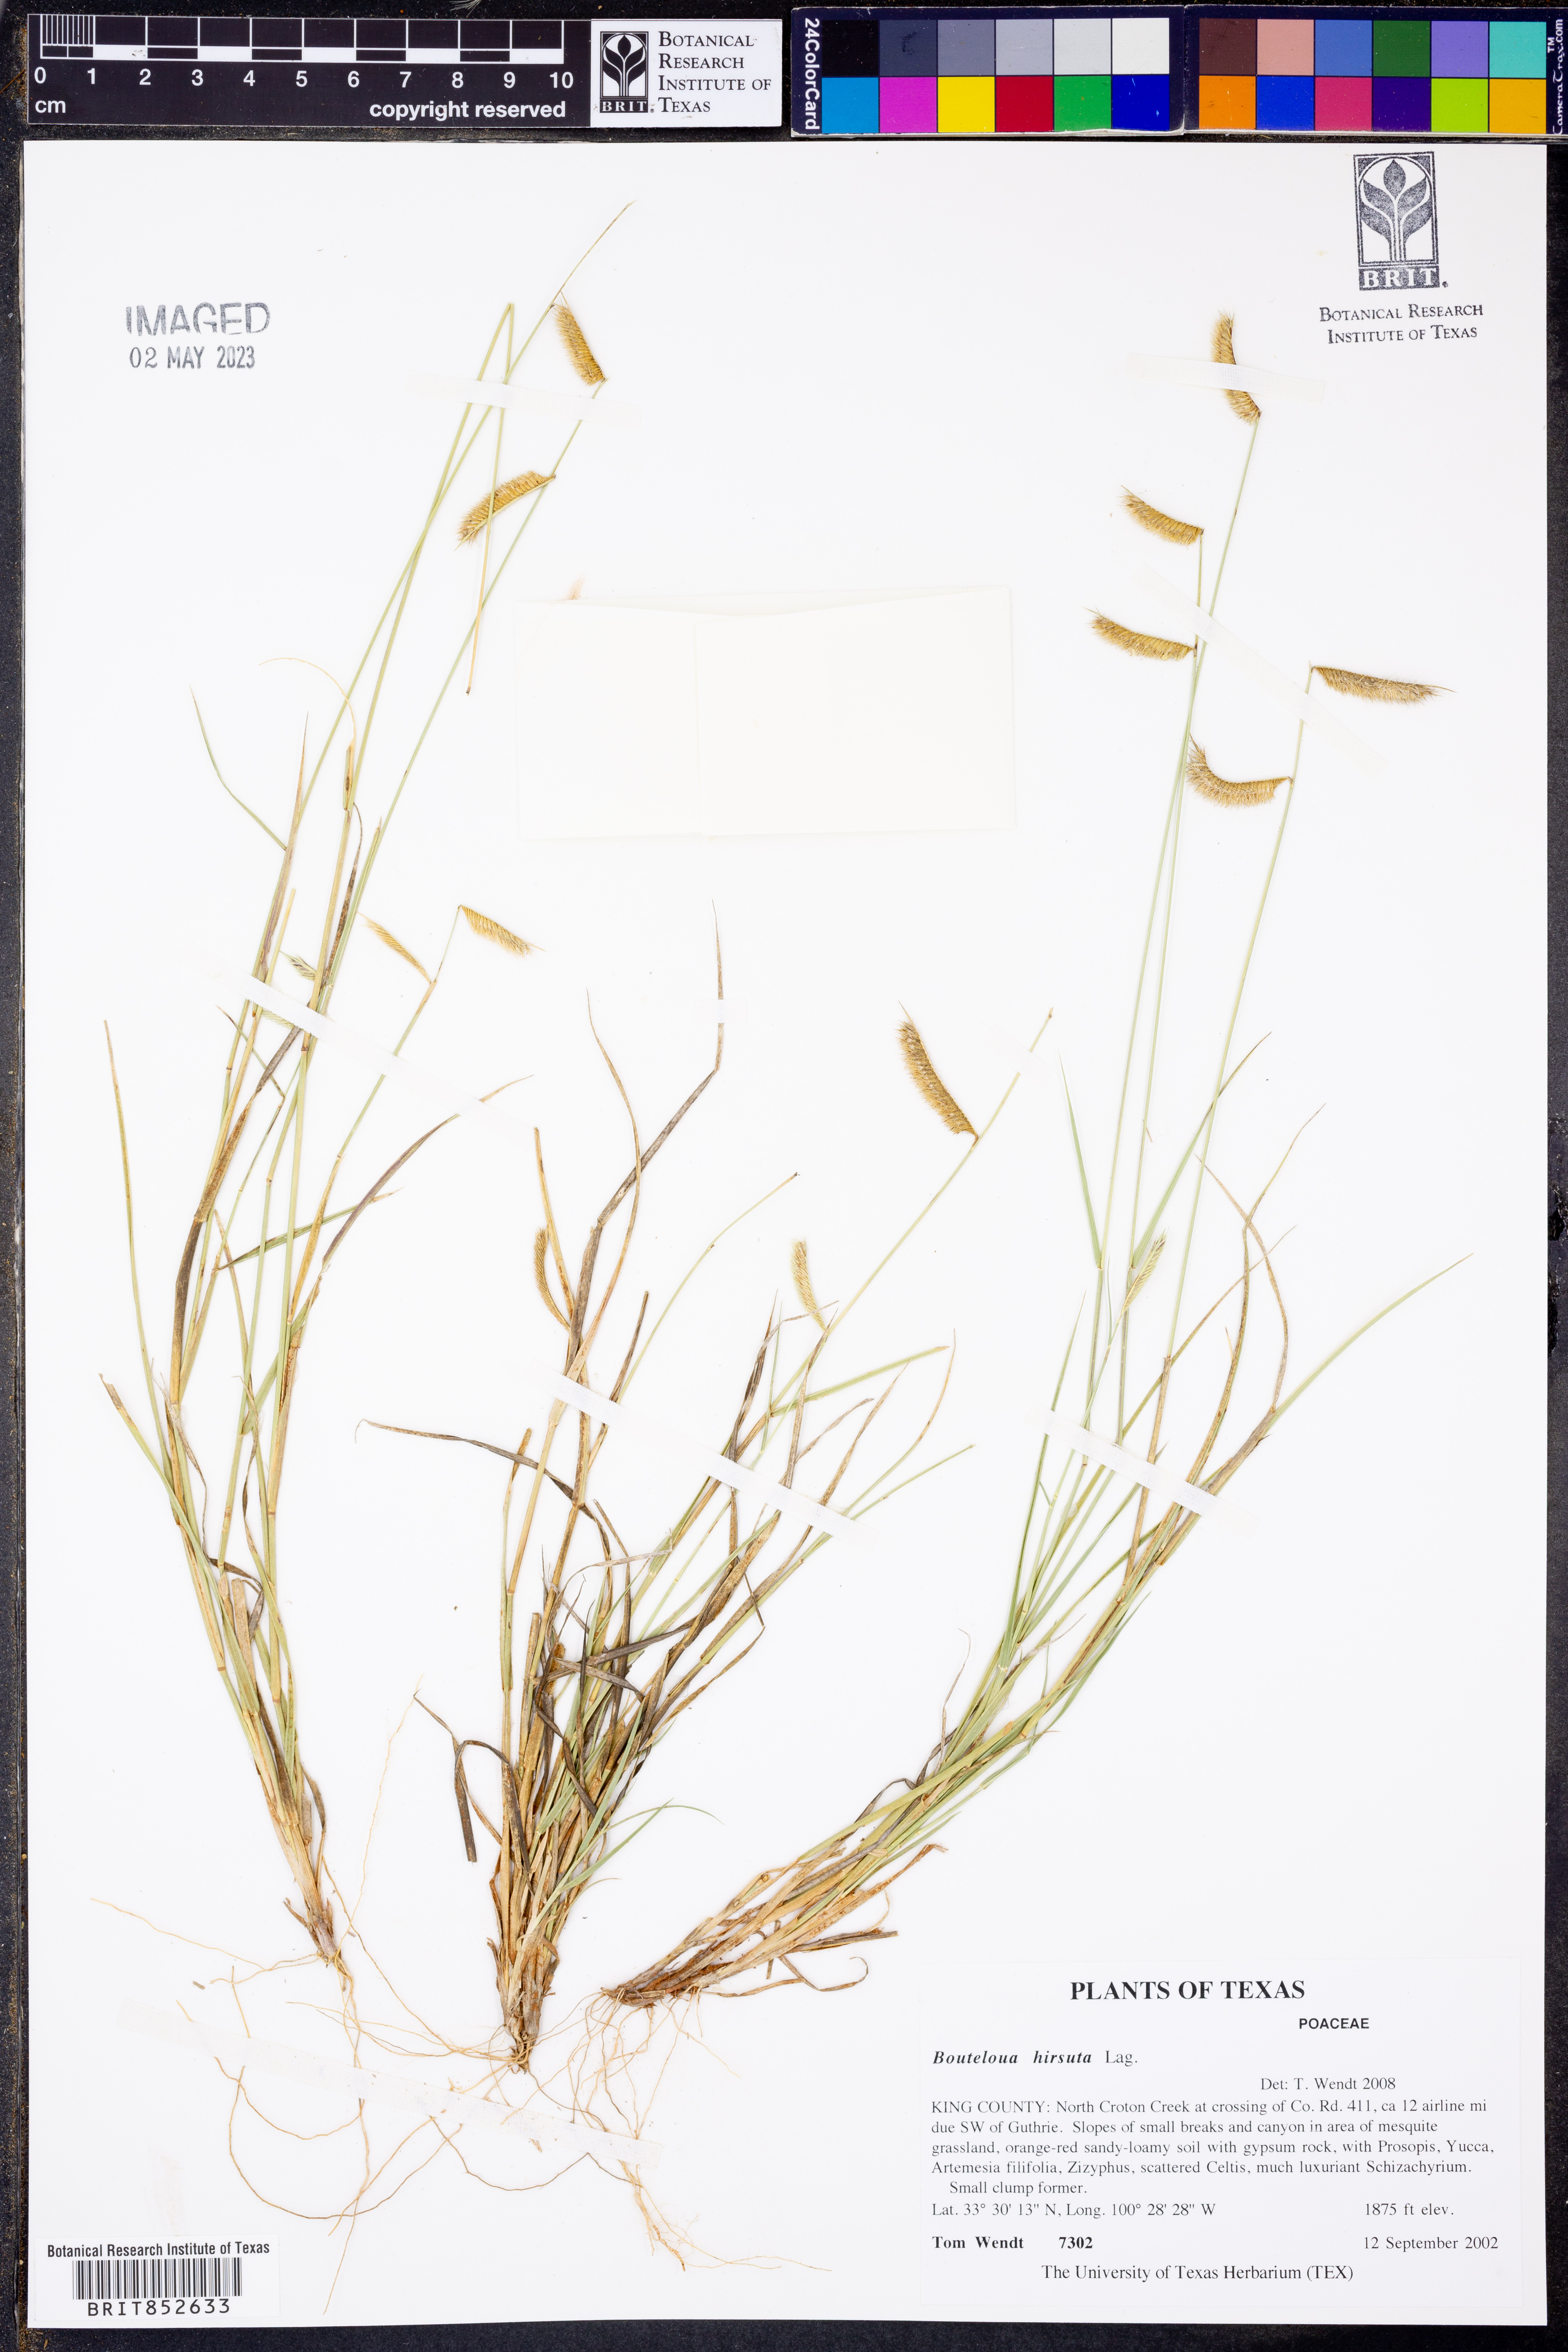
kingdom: Plantae
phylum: Tracheophyta
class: Liliopsida
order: Poales
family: Poaceae
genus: Bouteloua
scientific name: Bouteloua hirsuta
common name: Hairy grama
